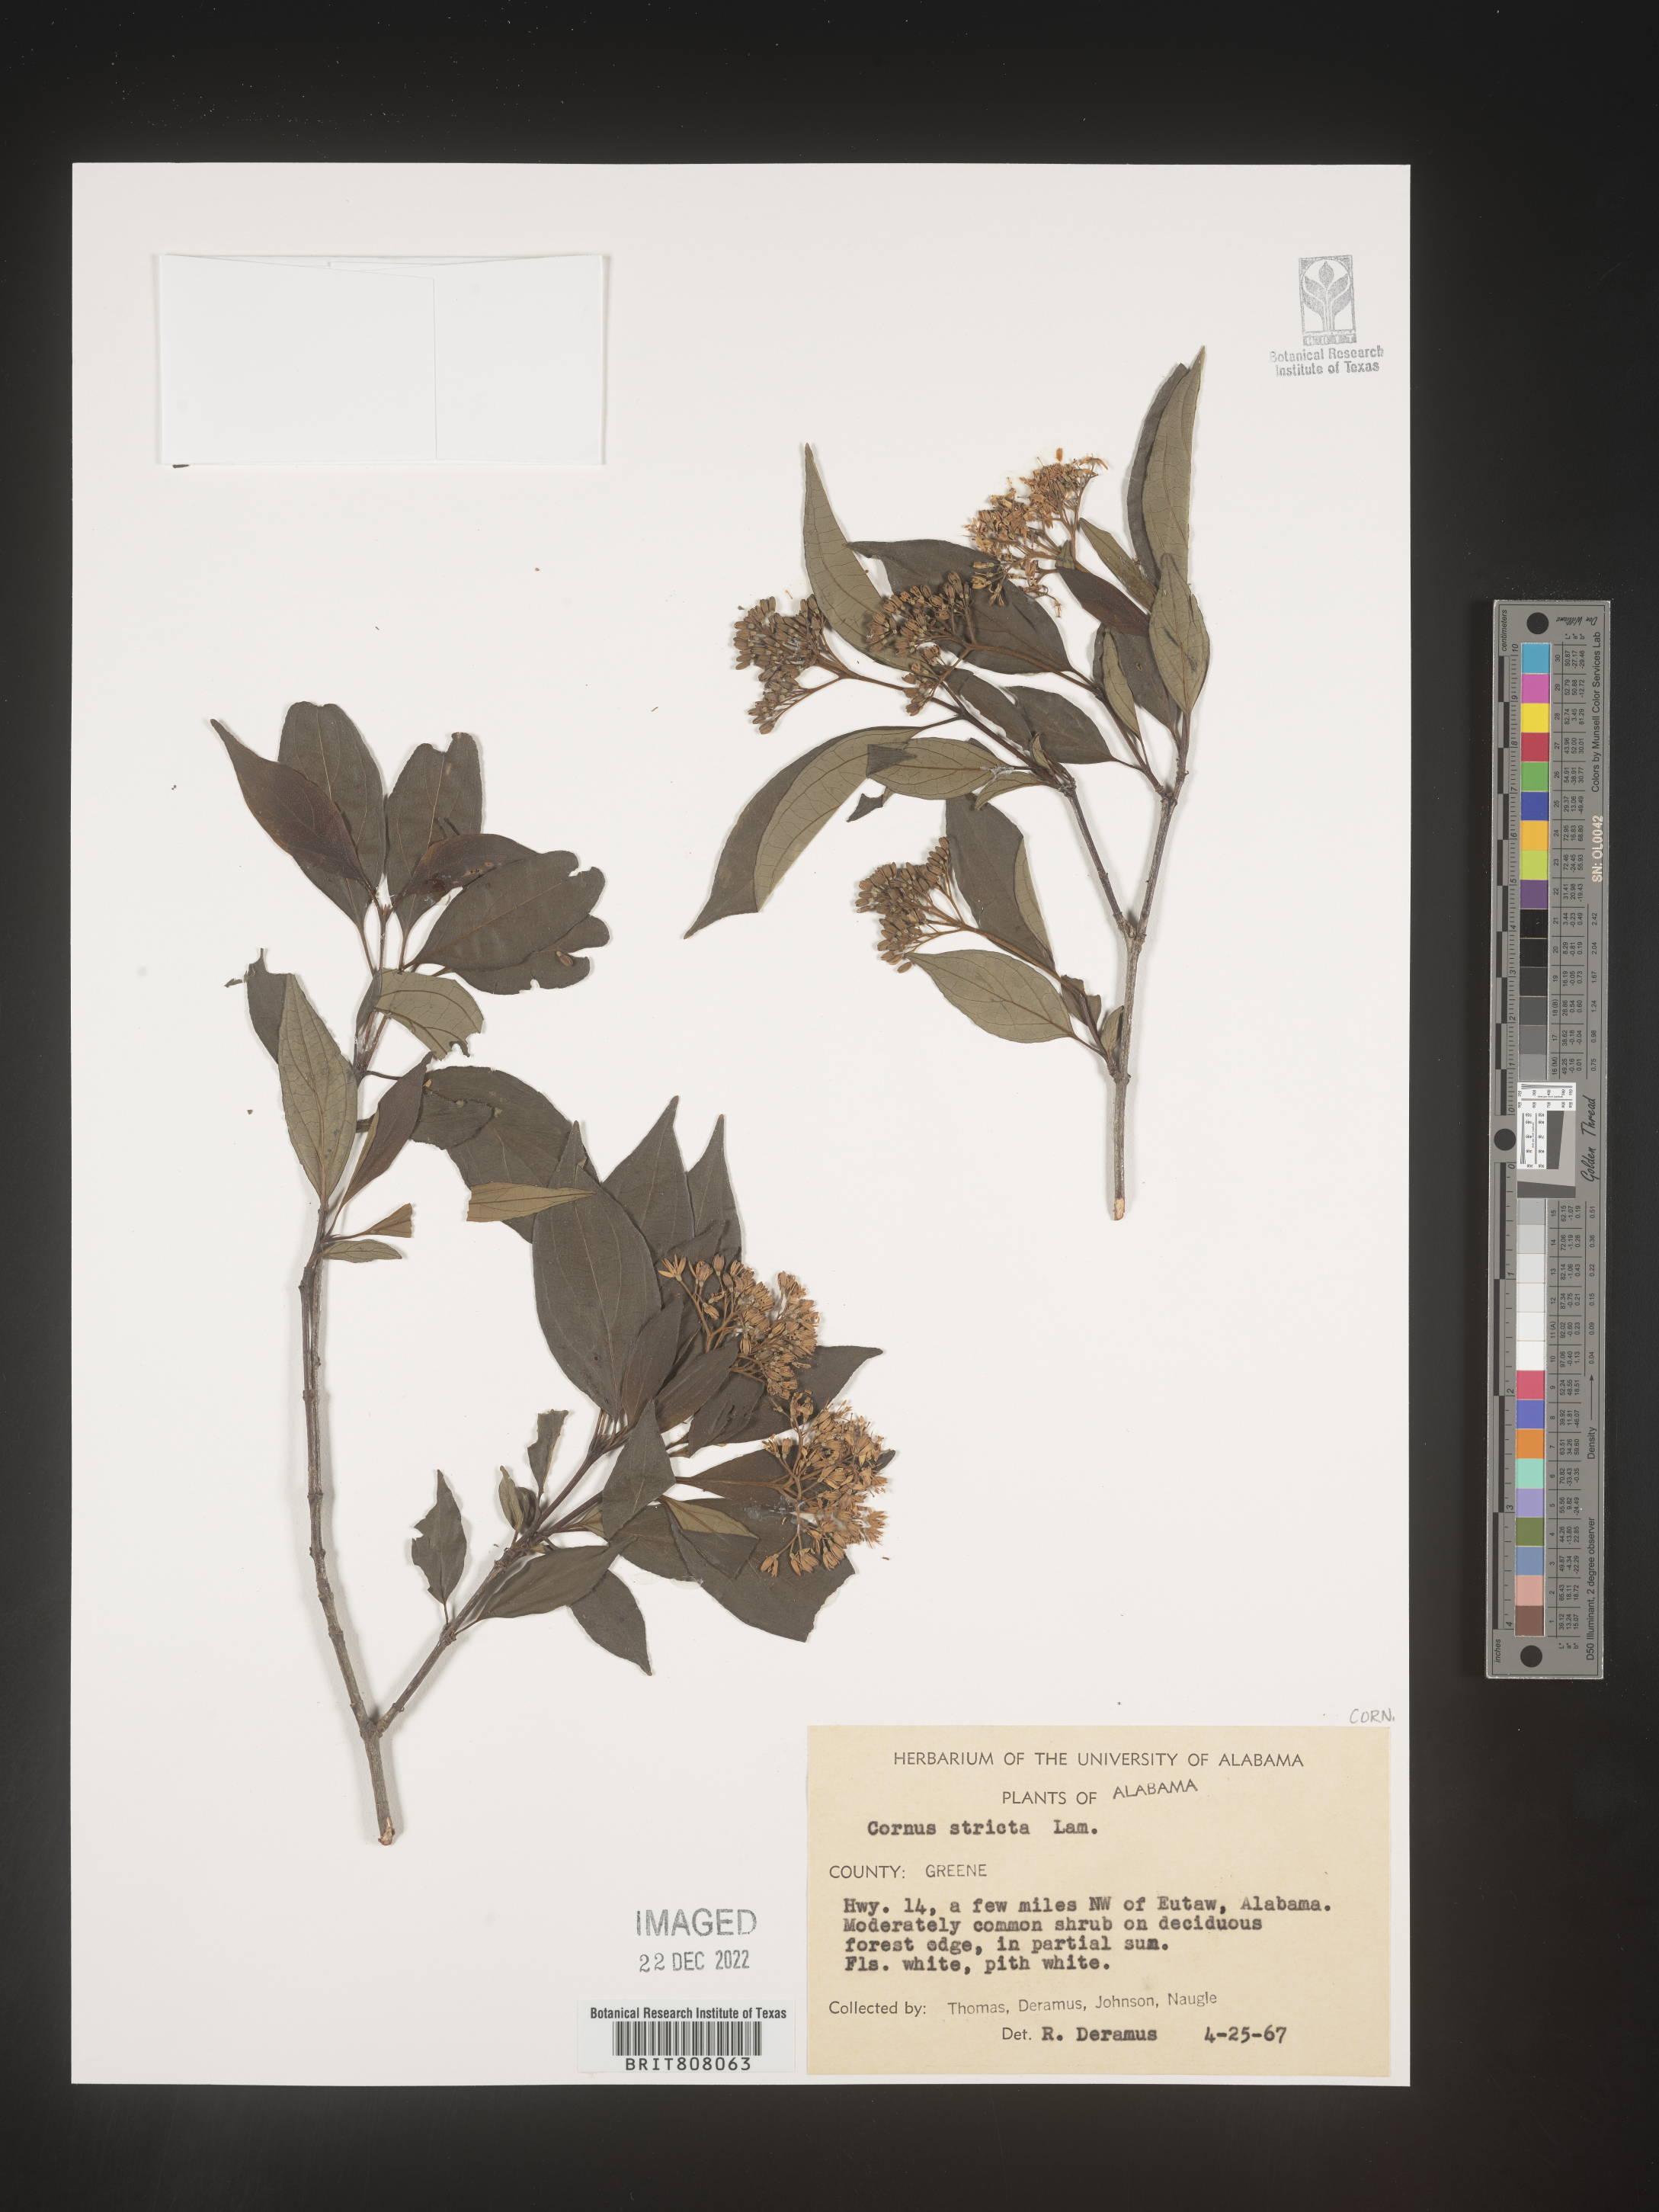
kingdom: Plantae
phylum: Tracheophyta
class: Magnoliopsida
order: Cornales
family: Cornaceae
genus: Cornus
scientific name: Cornus foemina
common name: Swamp dogwood
